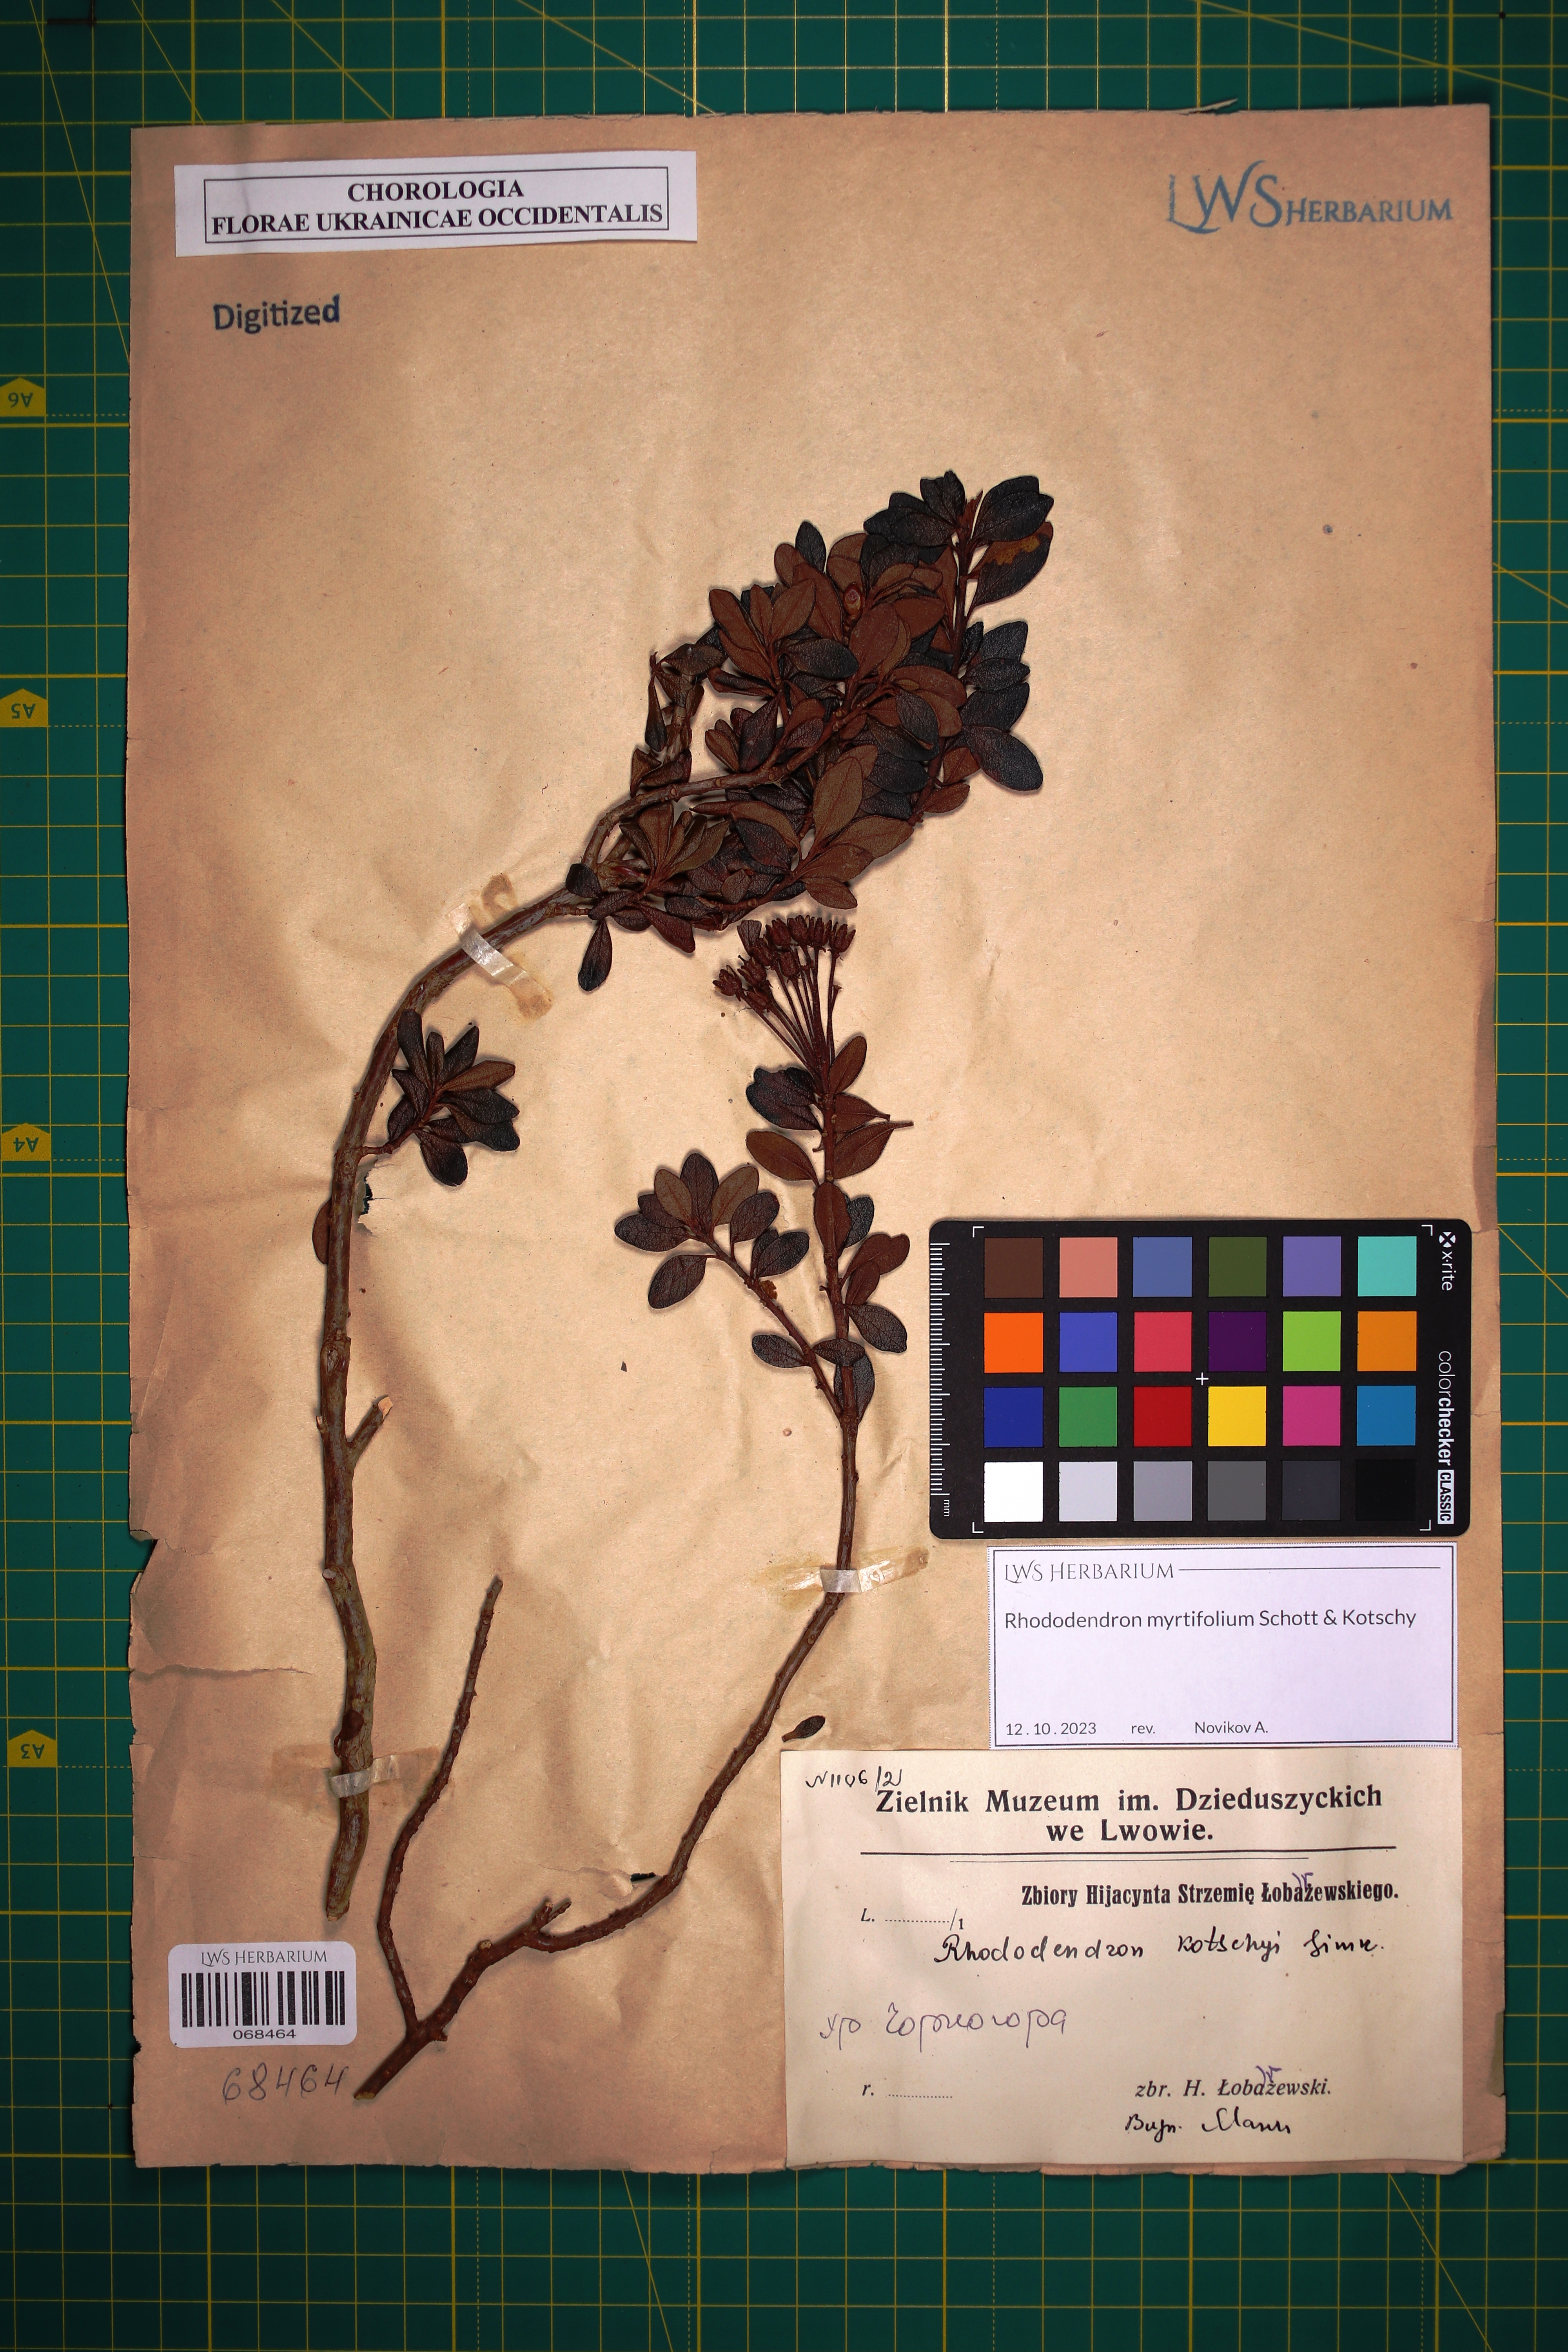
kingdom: Plantae
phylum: Tracheophyta
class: Magnoliopsida
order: Ericales
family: Ericaceae
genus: Rhododendron
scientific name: Rhododendron kotschyi
